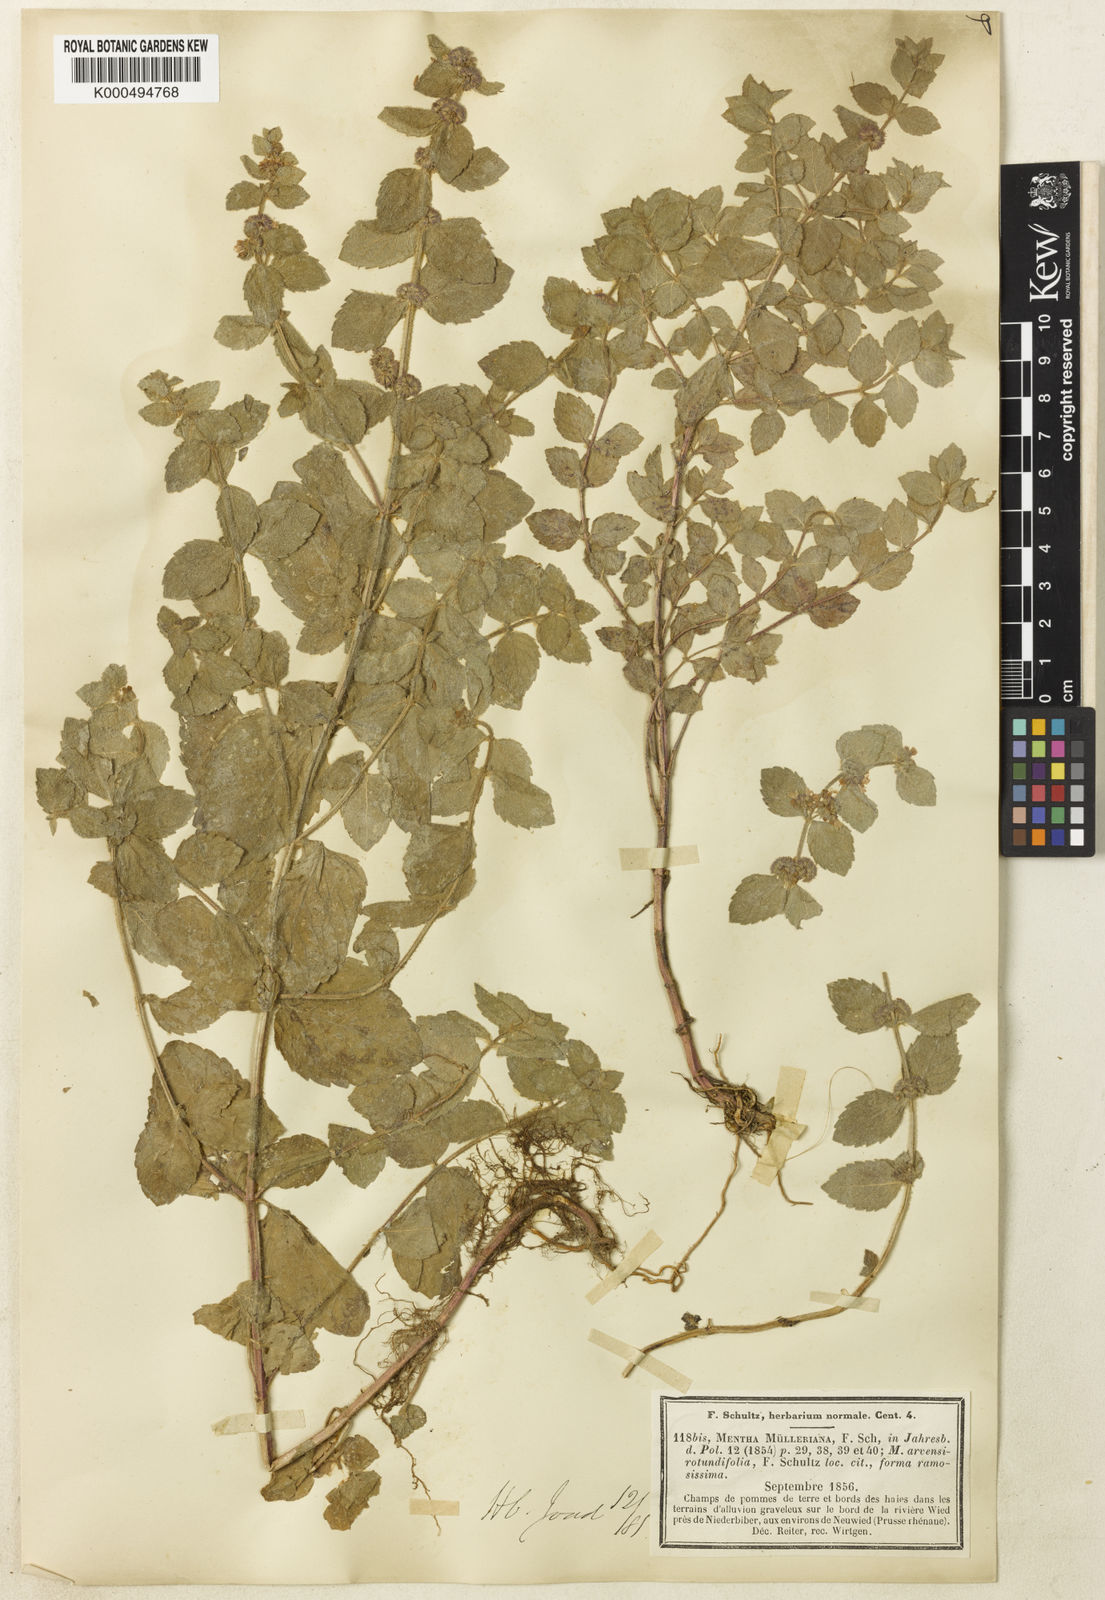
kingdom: Plantae
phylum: Tracheophyta
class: Magnoliopsida
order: Lamiales
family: Lamiaceae
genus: Mentha
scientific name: Mentha carinthiaca
